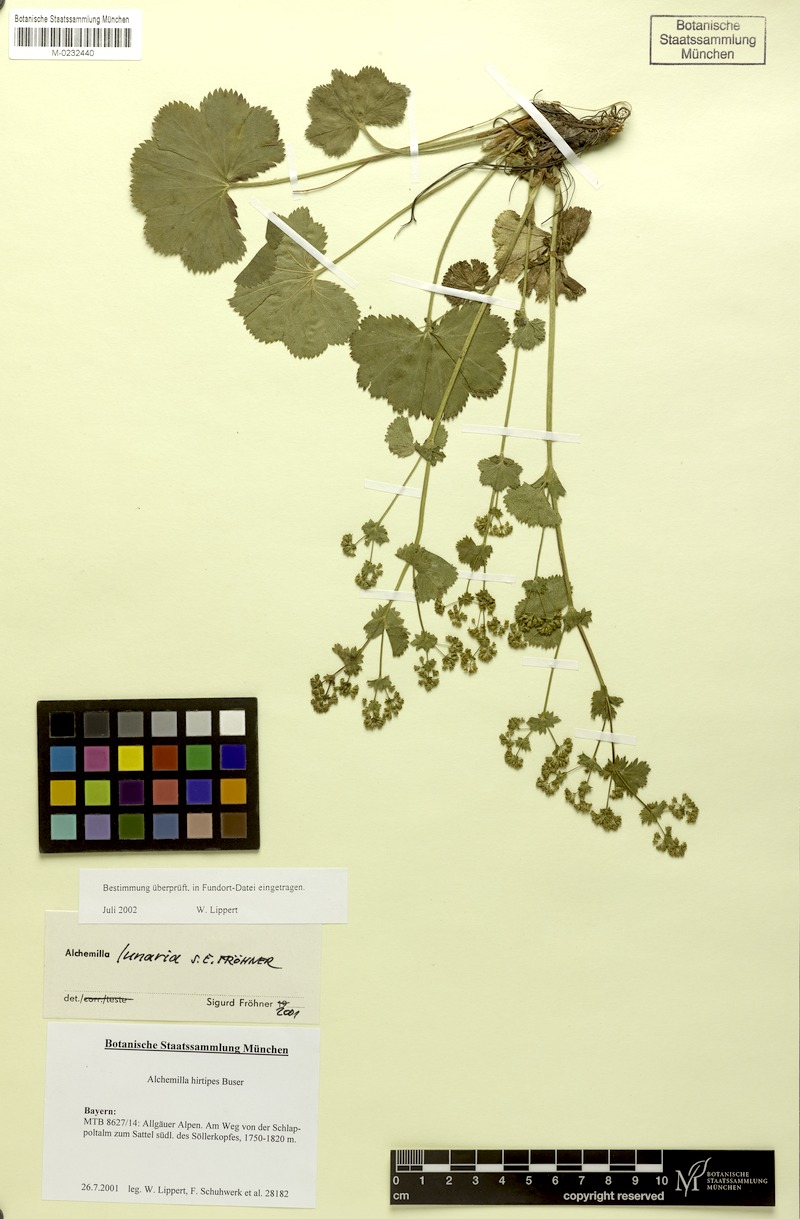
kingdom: Plantae
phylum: Tracheophyta
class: Magnoliopsida
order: Rosales
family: Rosaceae
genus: Alchemilla
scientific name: Alchemilla lunaria
